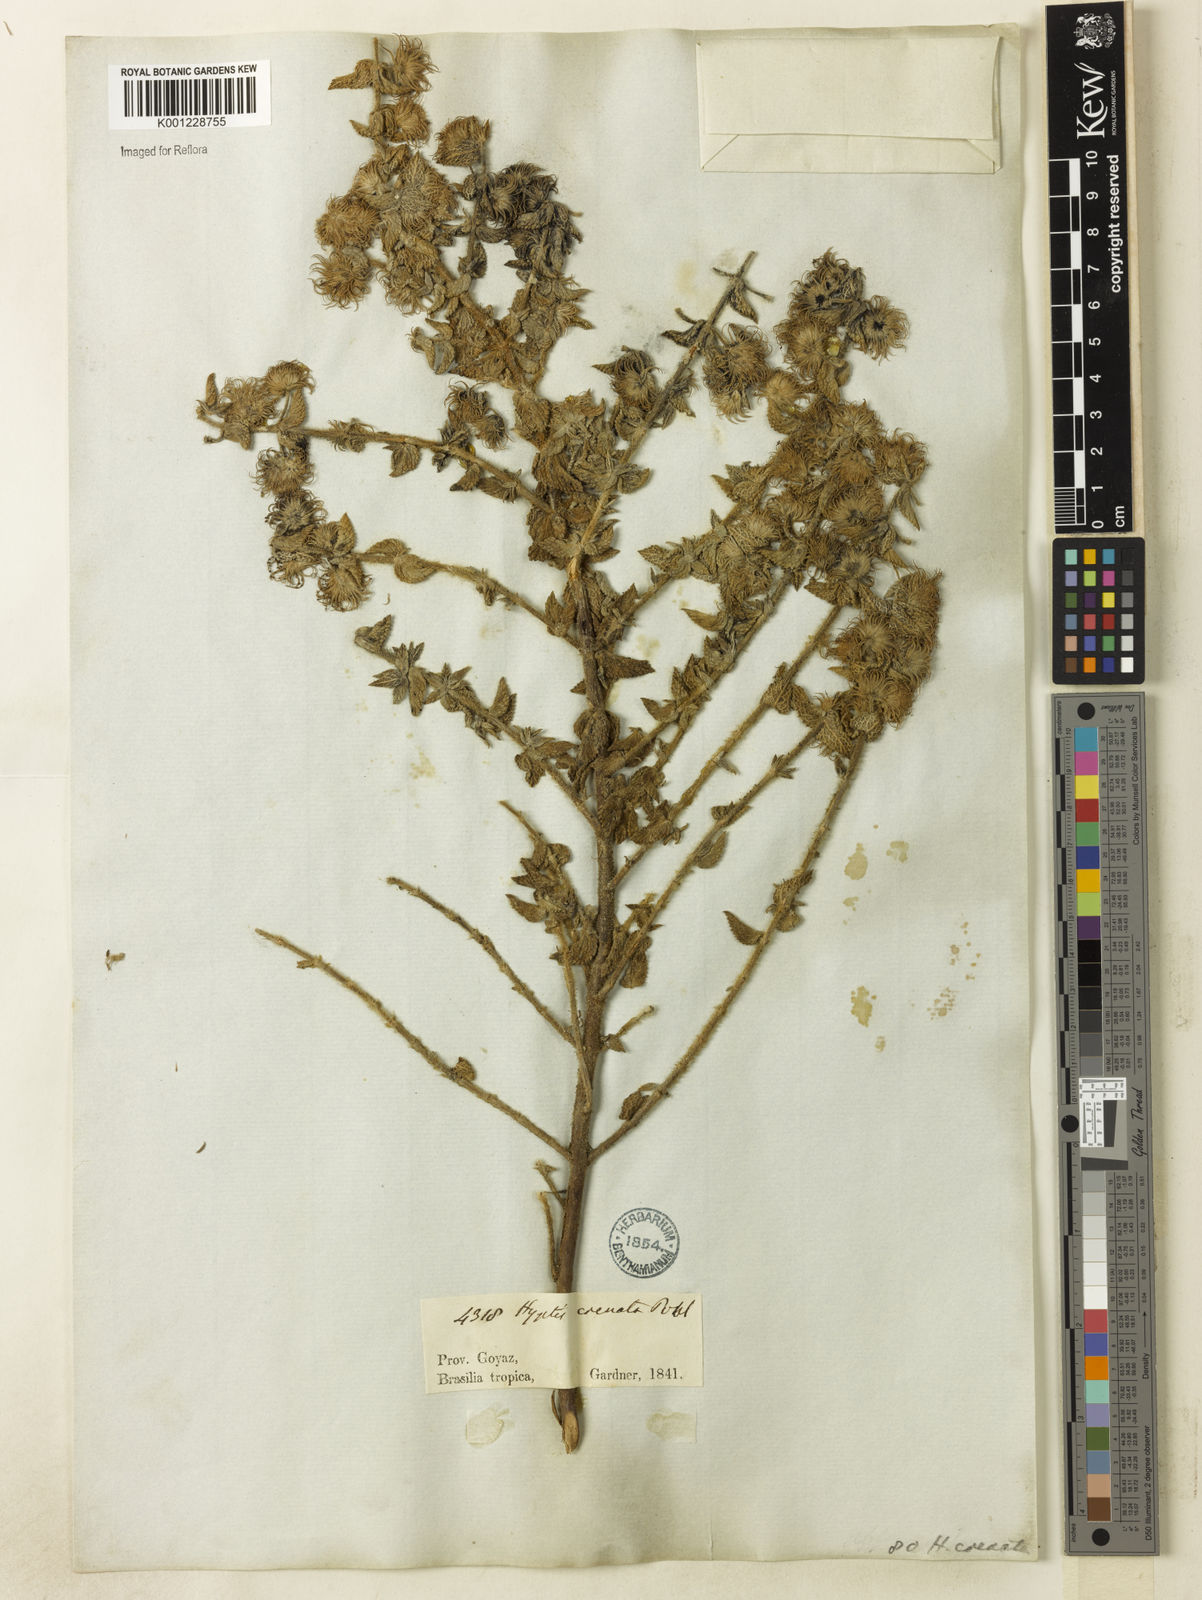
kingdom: Plantae
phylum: Tracheophyta
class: Magnoliopsida
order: Lamiales
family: Lamiaceae
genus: Hyptis
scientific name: Hyptis crenata
